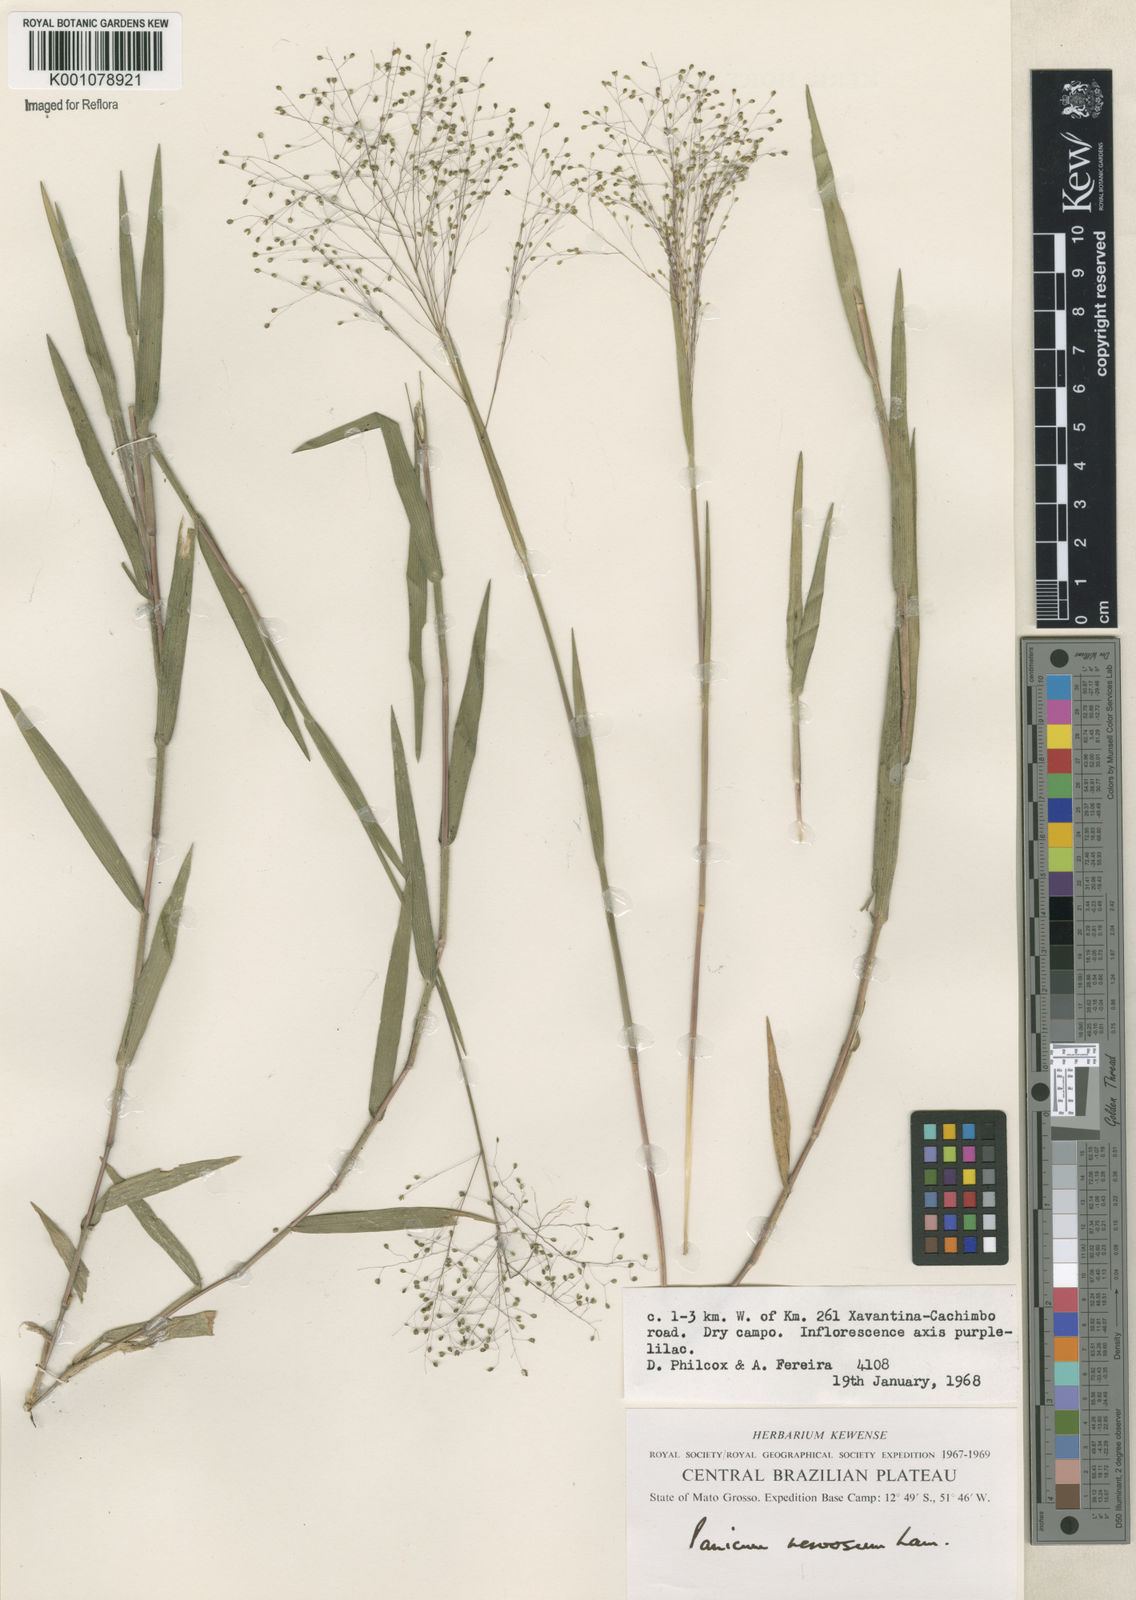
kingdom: Plantae
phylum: Tracheophyta
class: Liliopsida
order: Poales
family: Poaceae
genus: Trichanthecium
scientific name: Trichanthecium cyanescens
